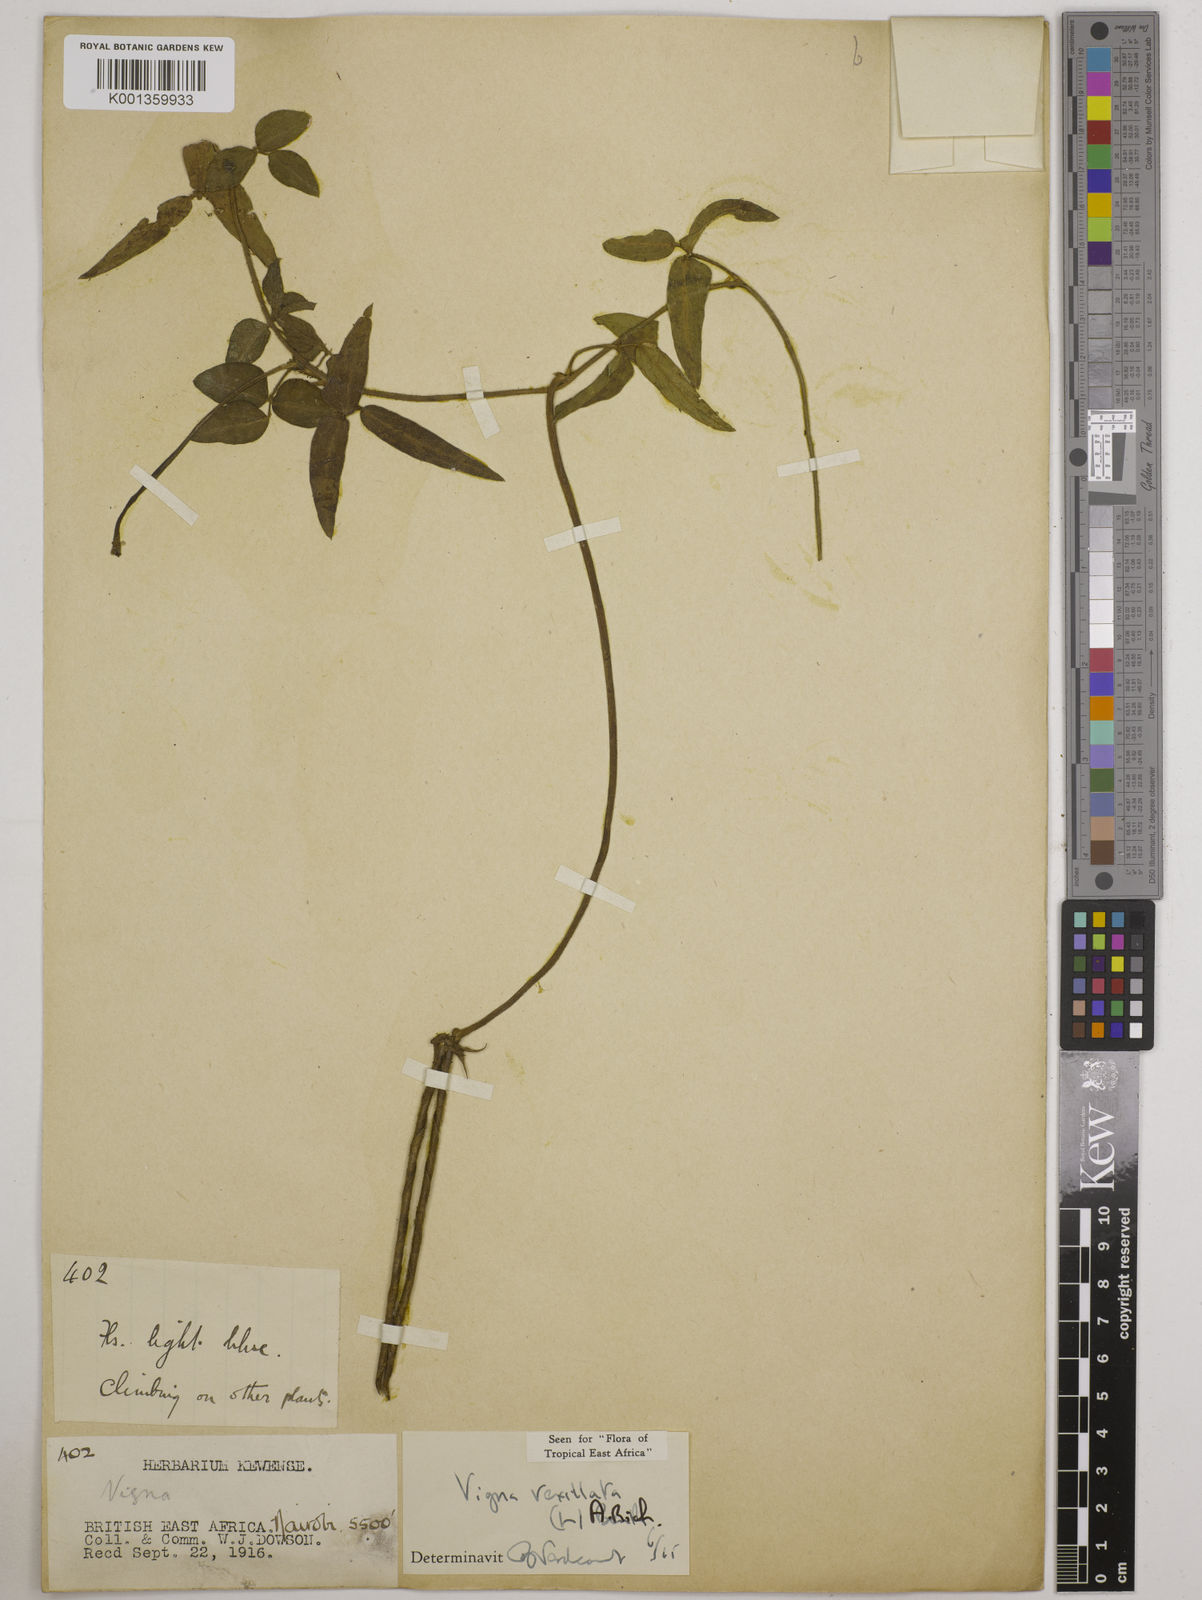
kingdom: Plantae
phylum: Tracheophyta
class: Magnoliopsida
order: Fabales
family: Fabaceae
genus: Vigna
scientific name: Vigna vexillata
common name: Zombi pea
